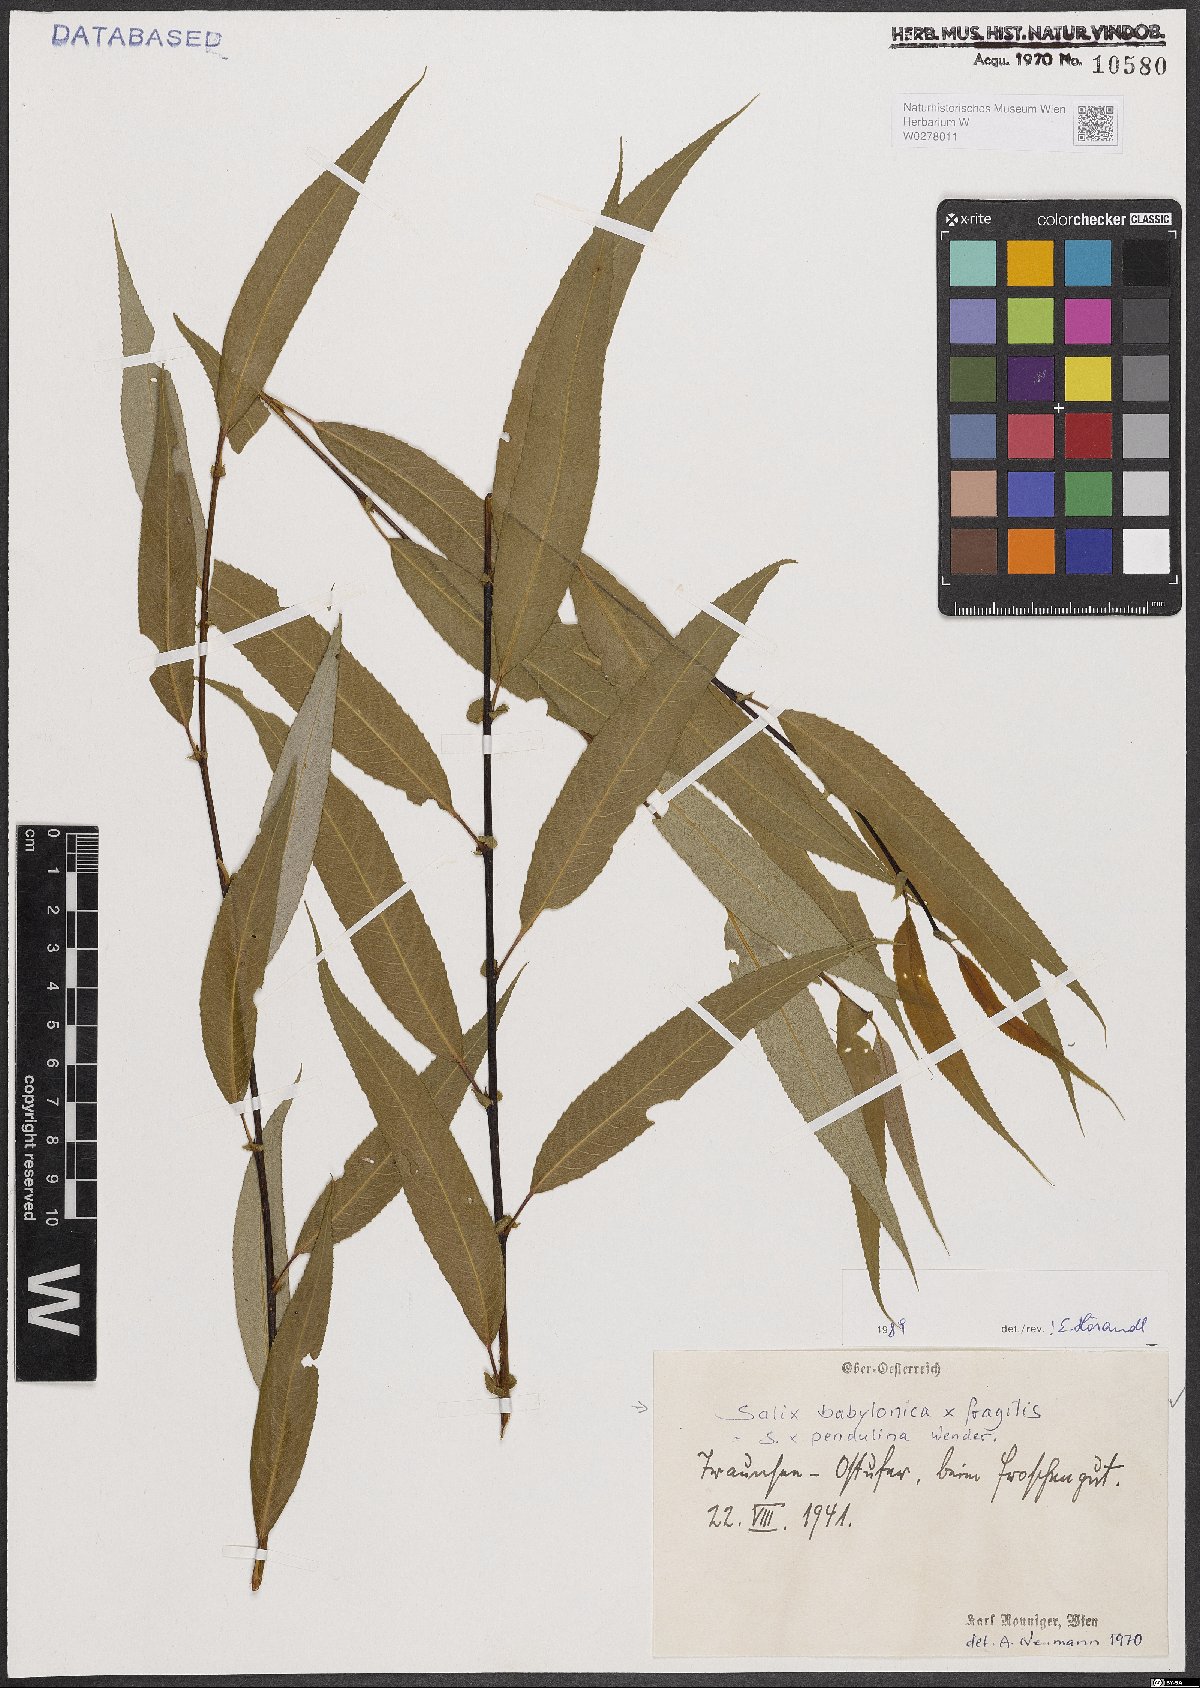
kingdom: Plantae
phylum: Tracheophyta
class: Magnoliopsida
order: Malpighiales
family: Salicaceae
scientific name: Salicaceae
